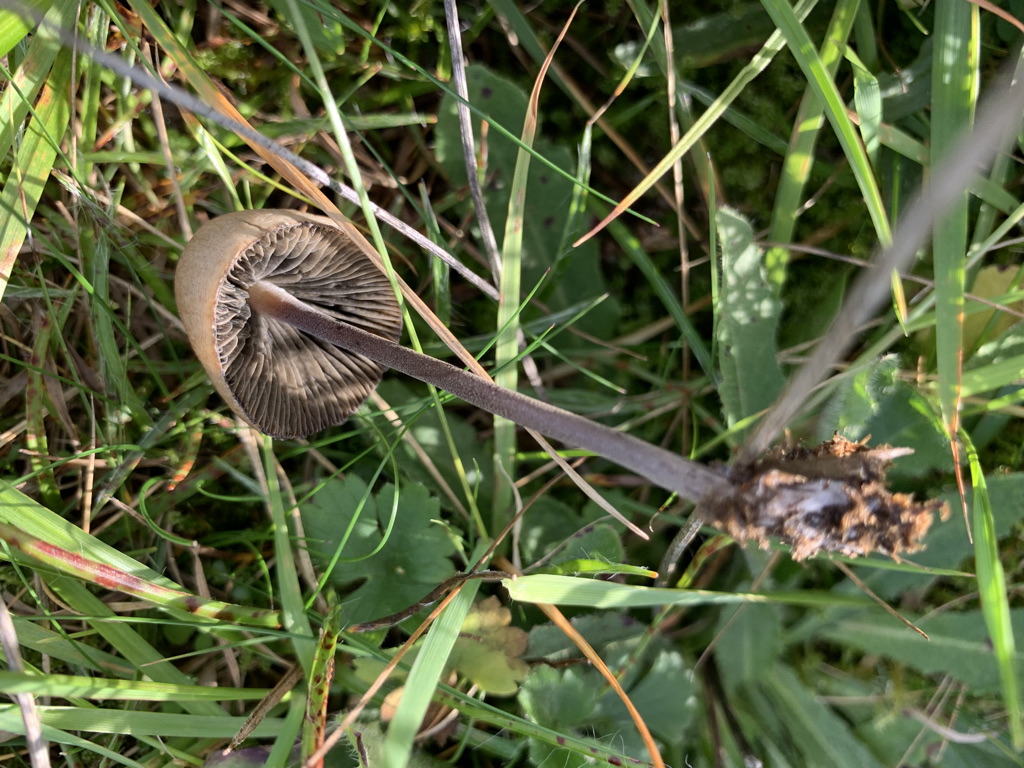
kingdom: Fungi
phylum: Basidiomycota
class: Agaricomycetes
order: Agaricales
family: Bolbitiaceae
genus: Panaeolus
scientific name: Panaeolus papilionaceus
